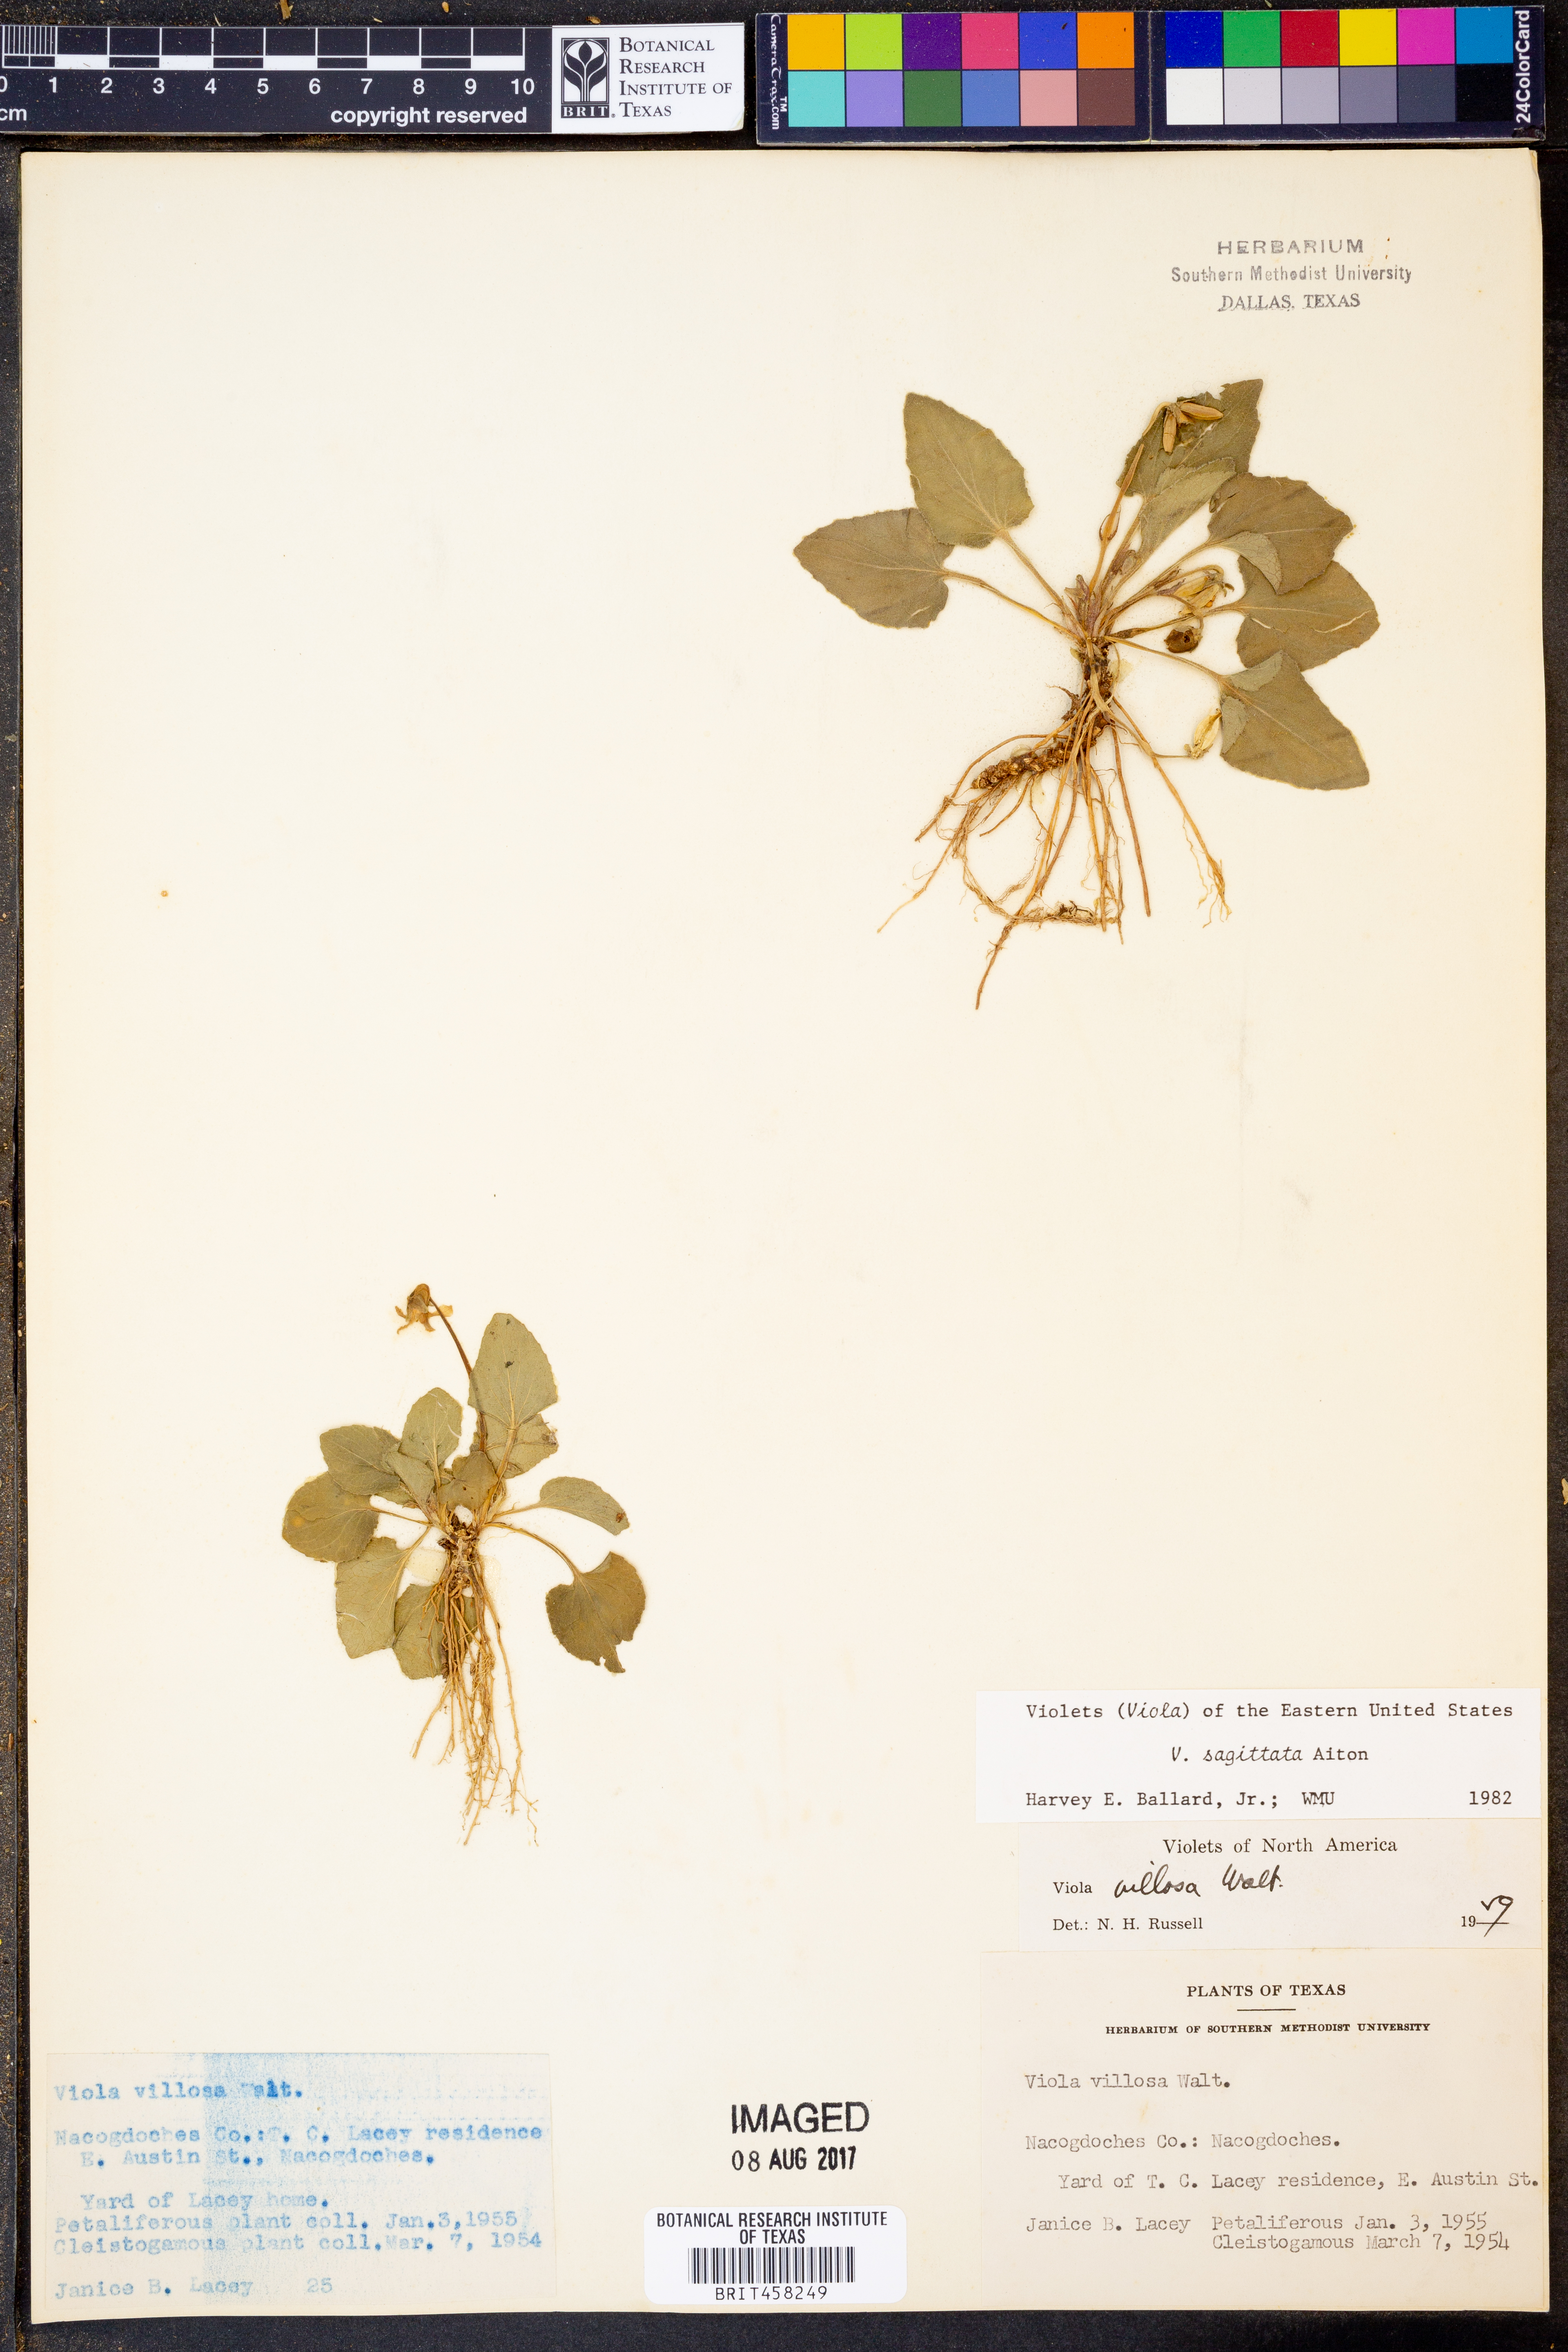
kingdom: Plantae
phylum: Tracheophyta
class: Magnoliopsida
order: Malpighiales
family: Violaceae
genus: Viola
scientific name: Viola sagittata
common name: Arrowhead violet
